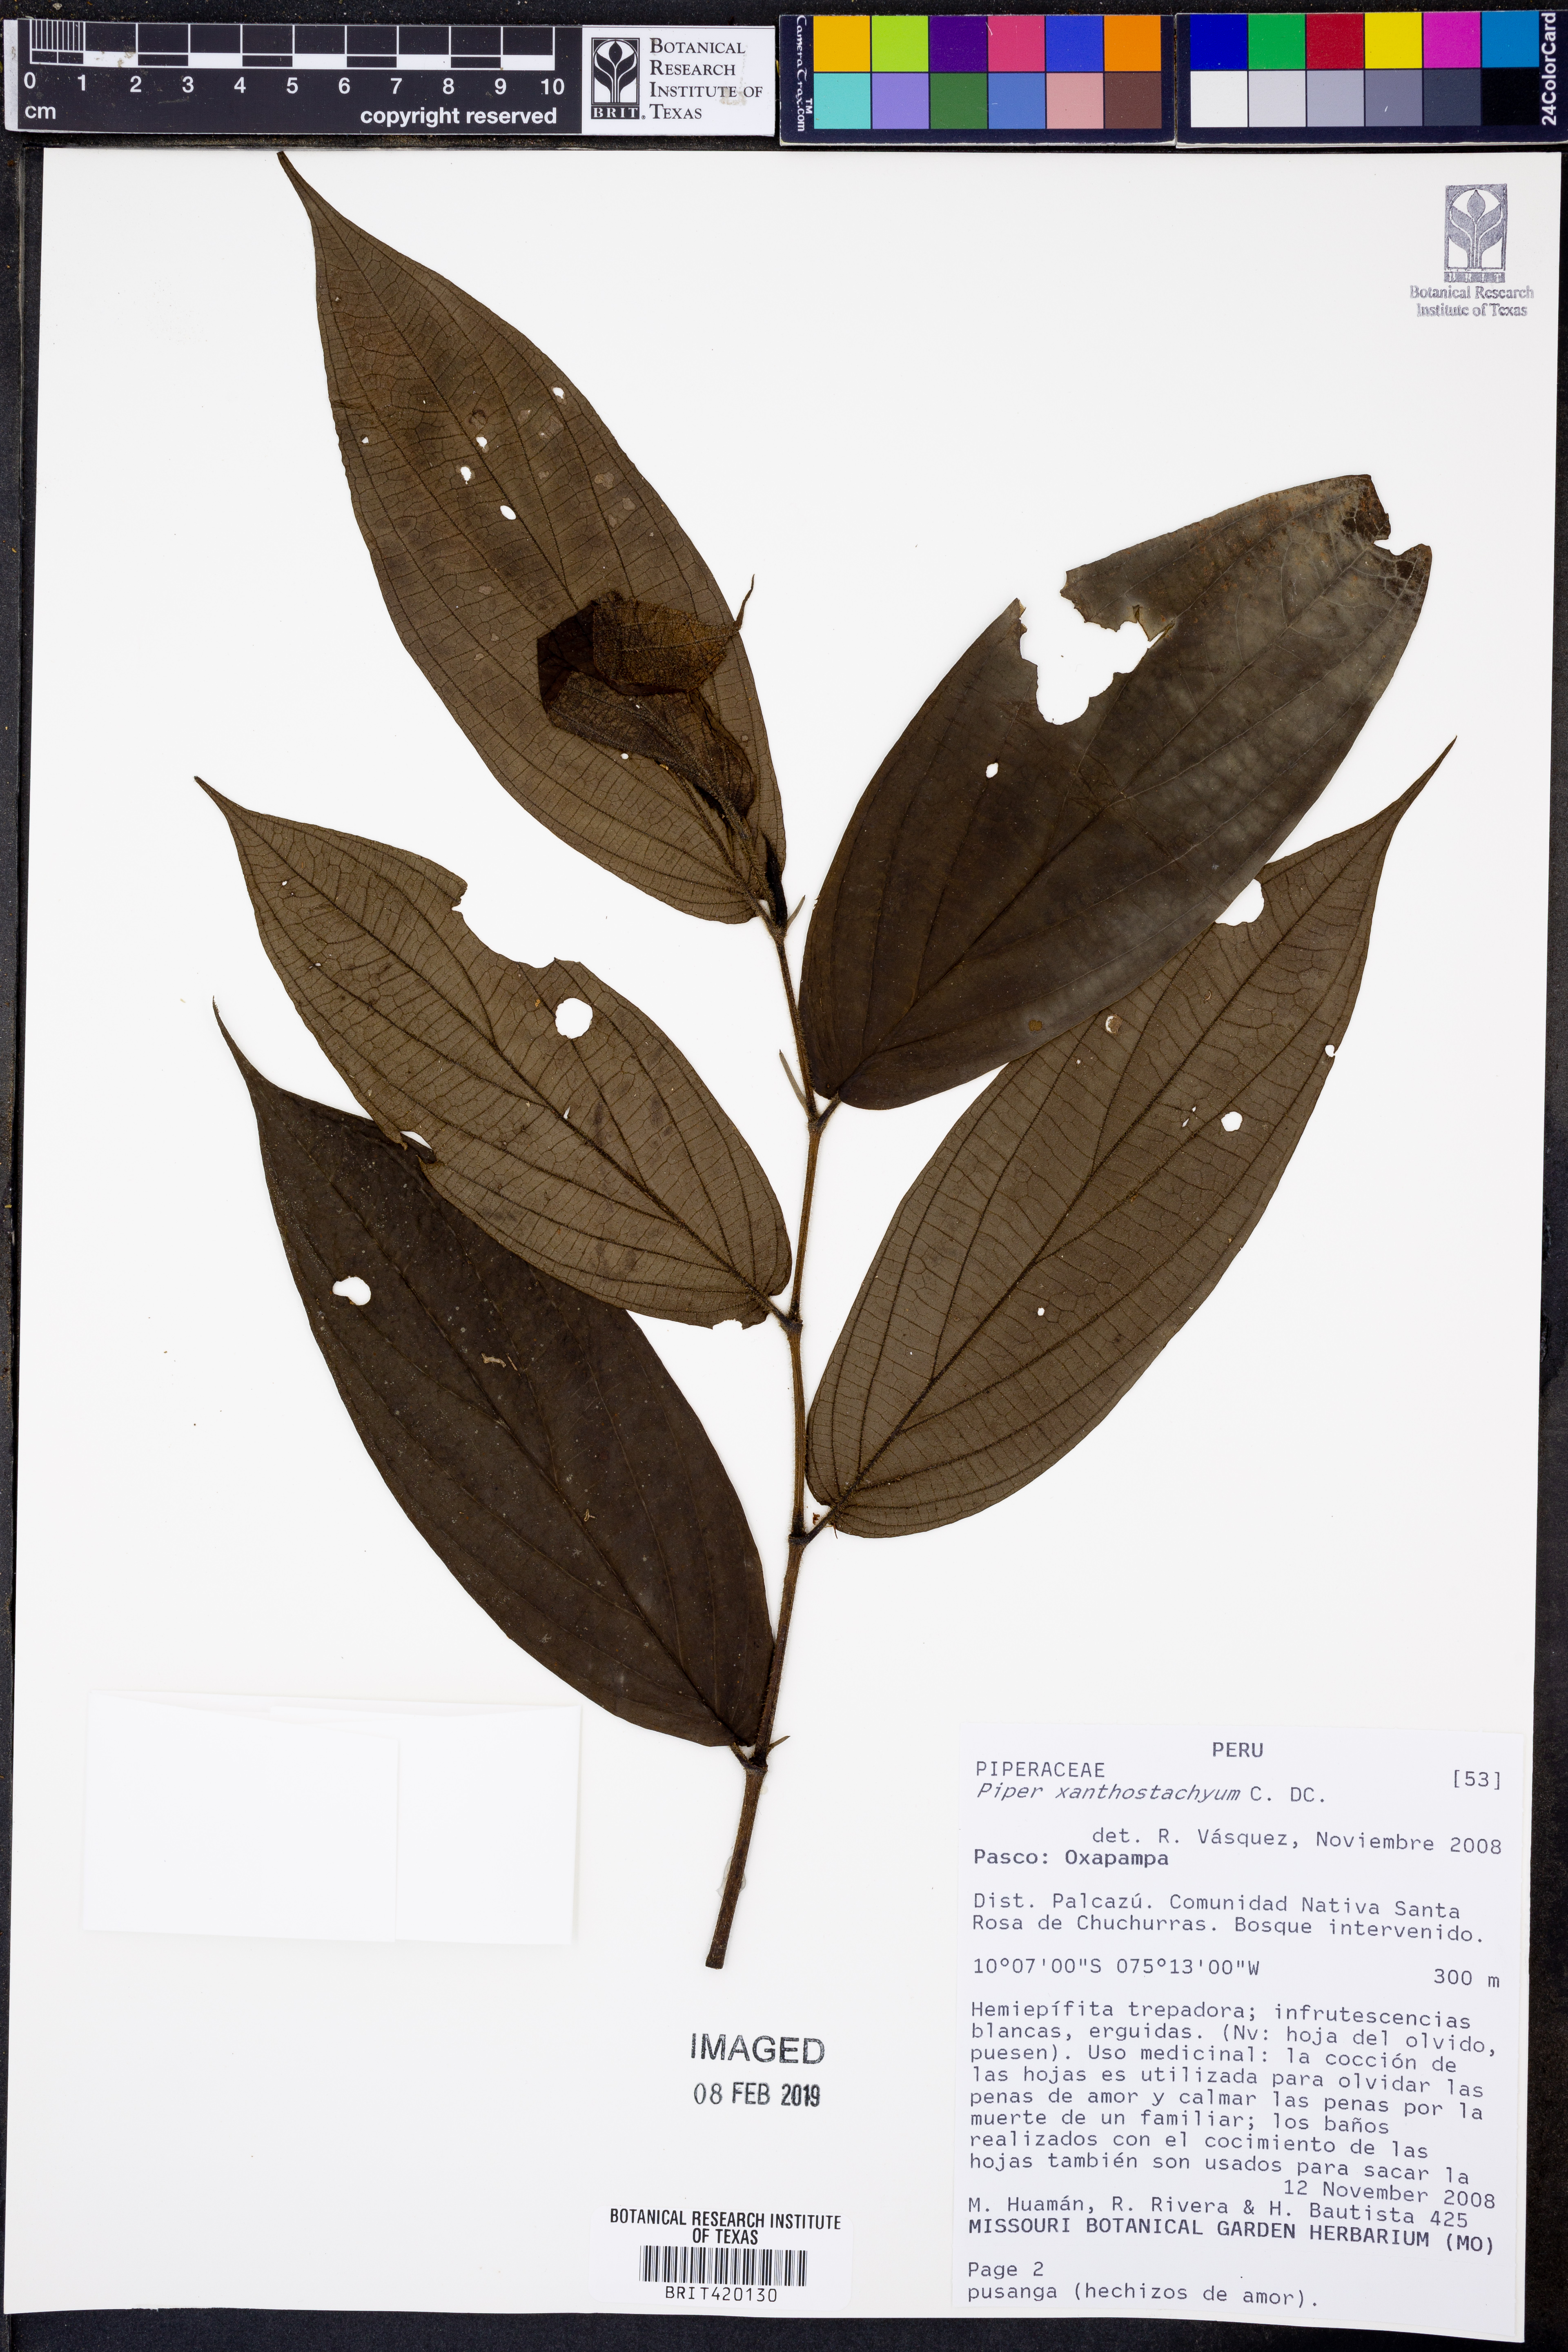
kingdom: Plantae
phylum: Tracheophyta
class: Magnoliopsida
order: Piperales
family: Piperaceae
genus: Piper
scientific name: Piper xanthostachyum
